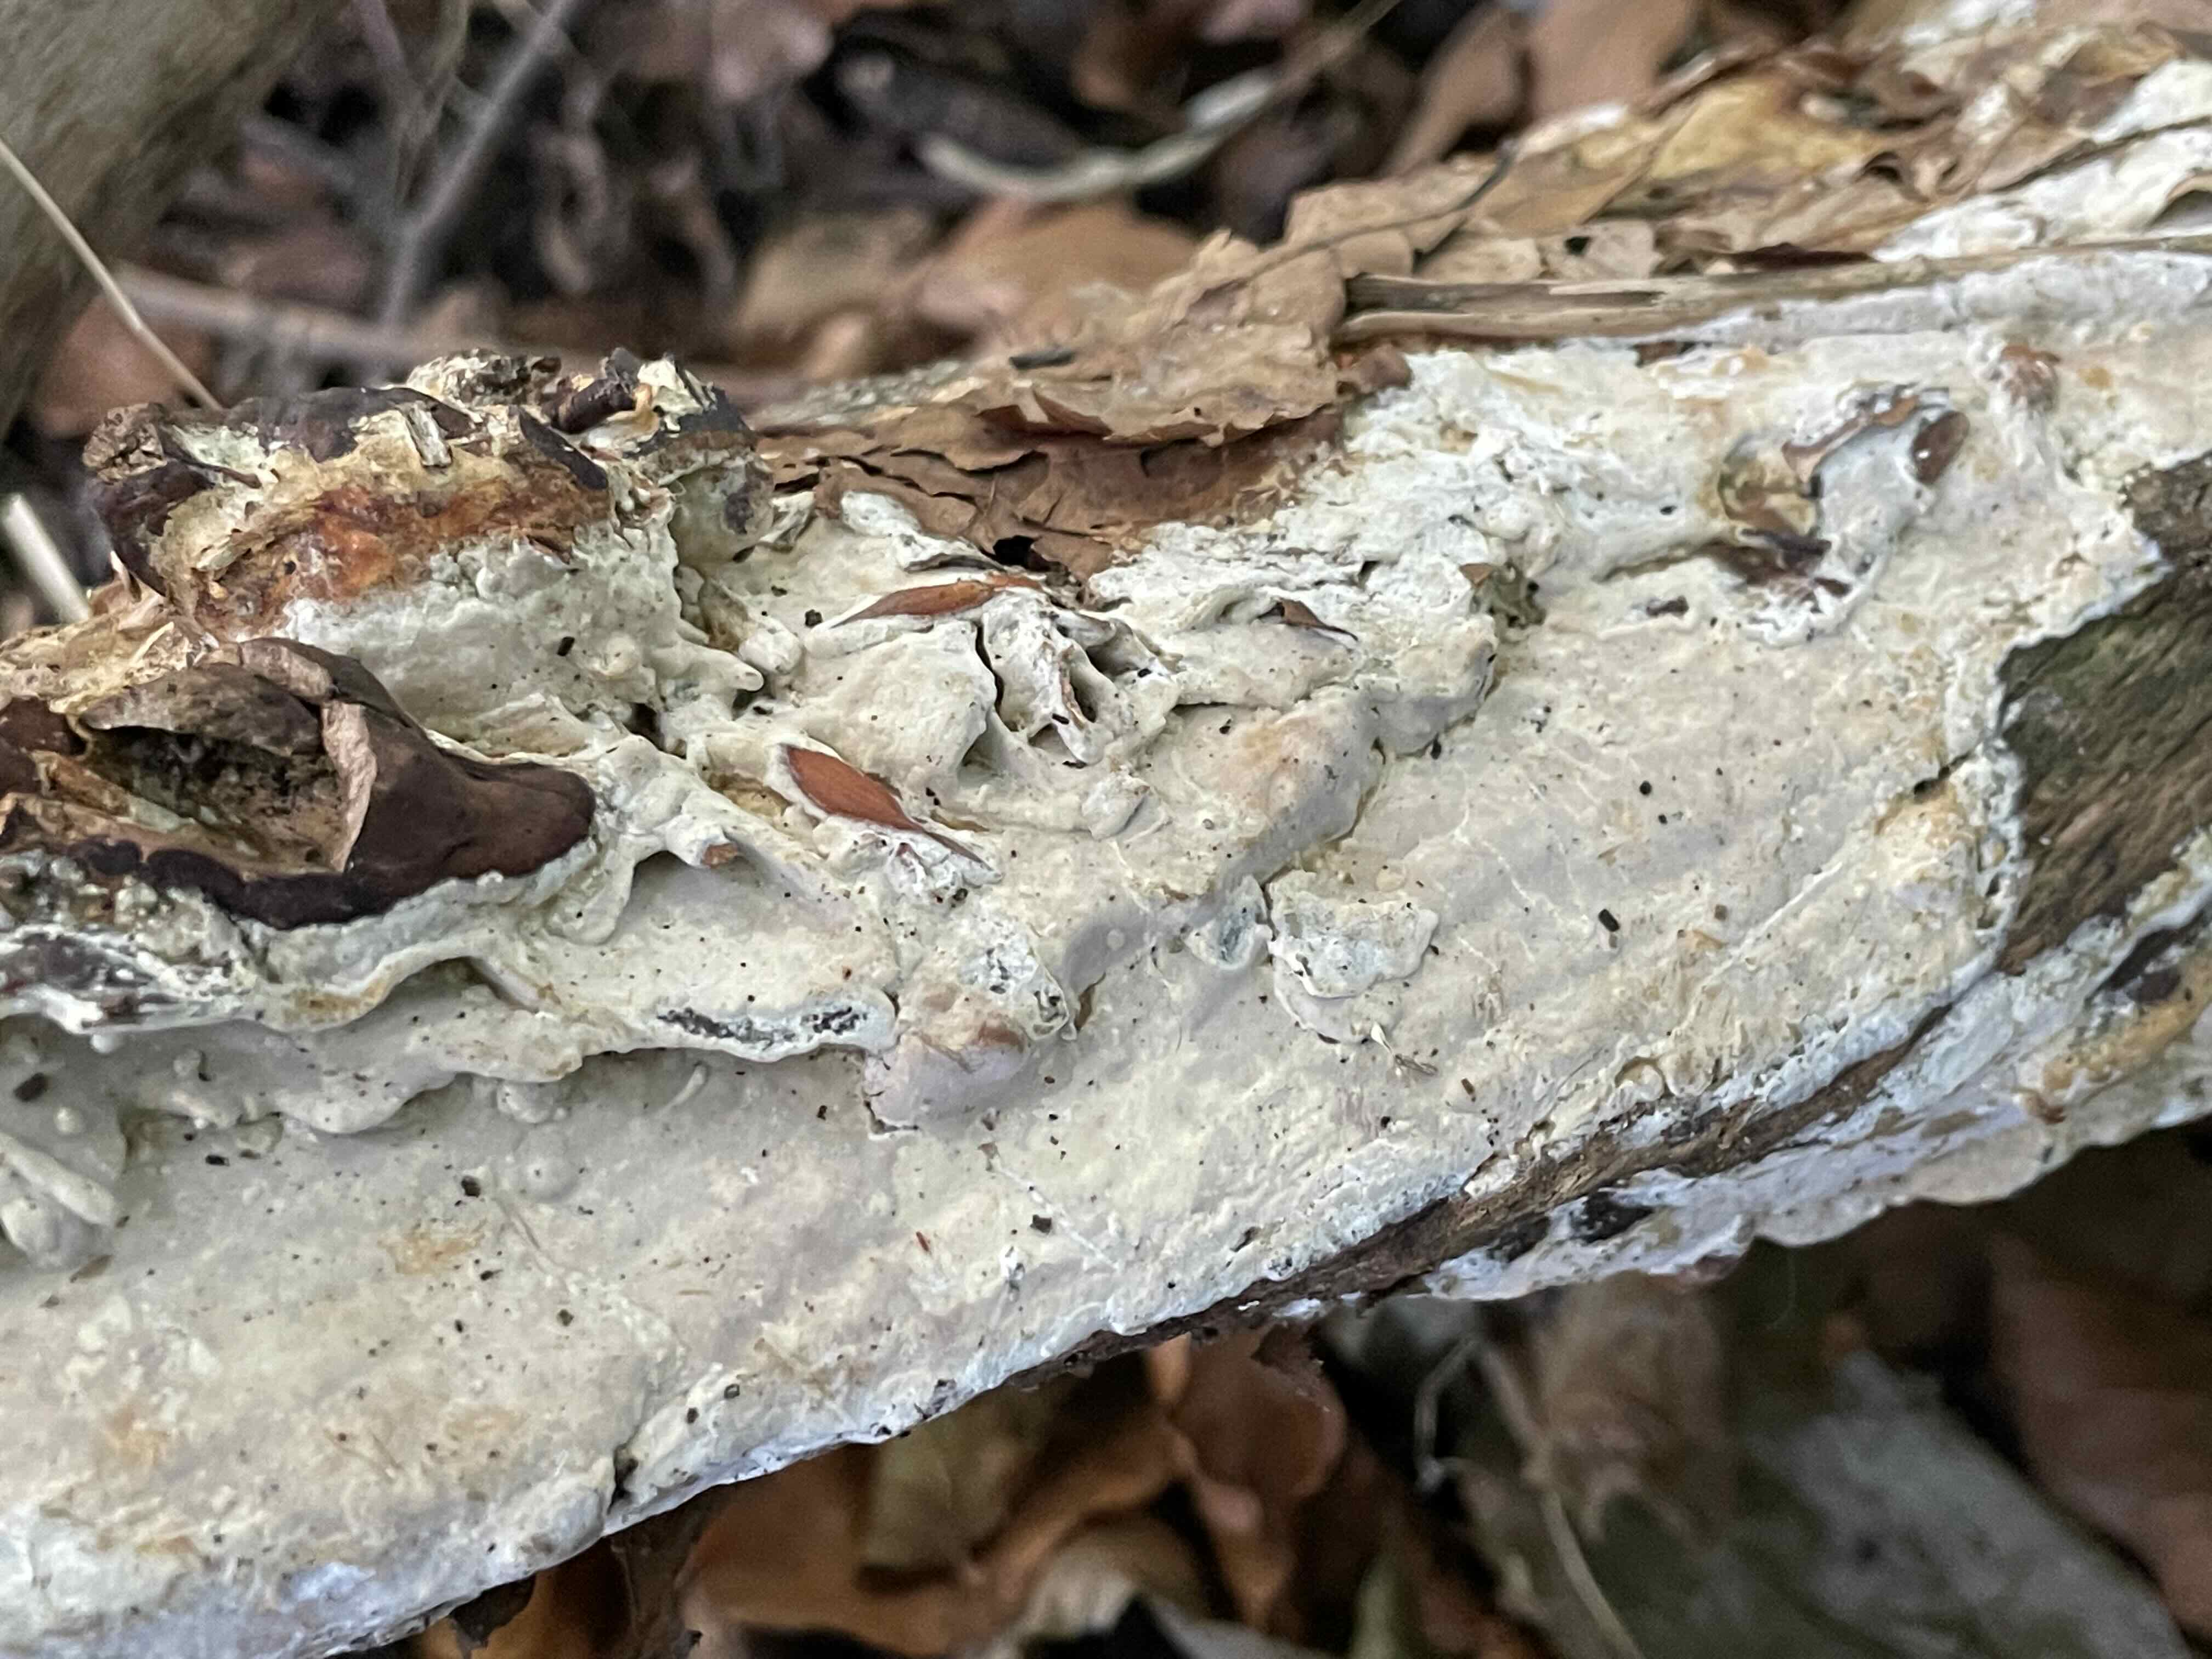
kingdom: Fungi
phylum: Basidiomycota
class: Agaricomycetes
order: Russulales
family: Peniophoraceae
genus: Scytinostroma
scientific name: Scytinostroma hemidichophyticum
